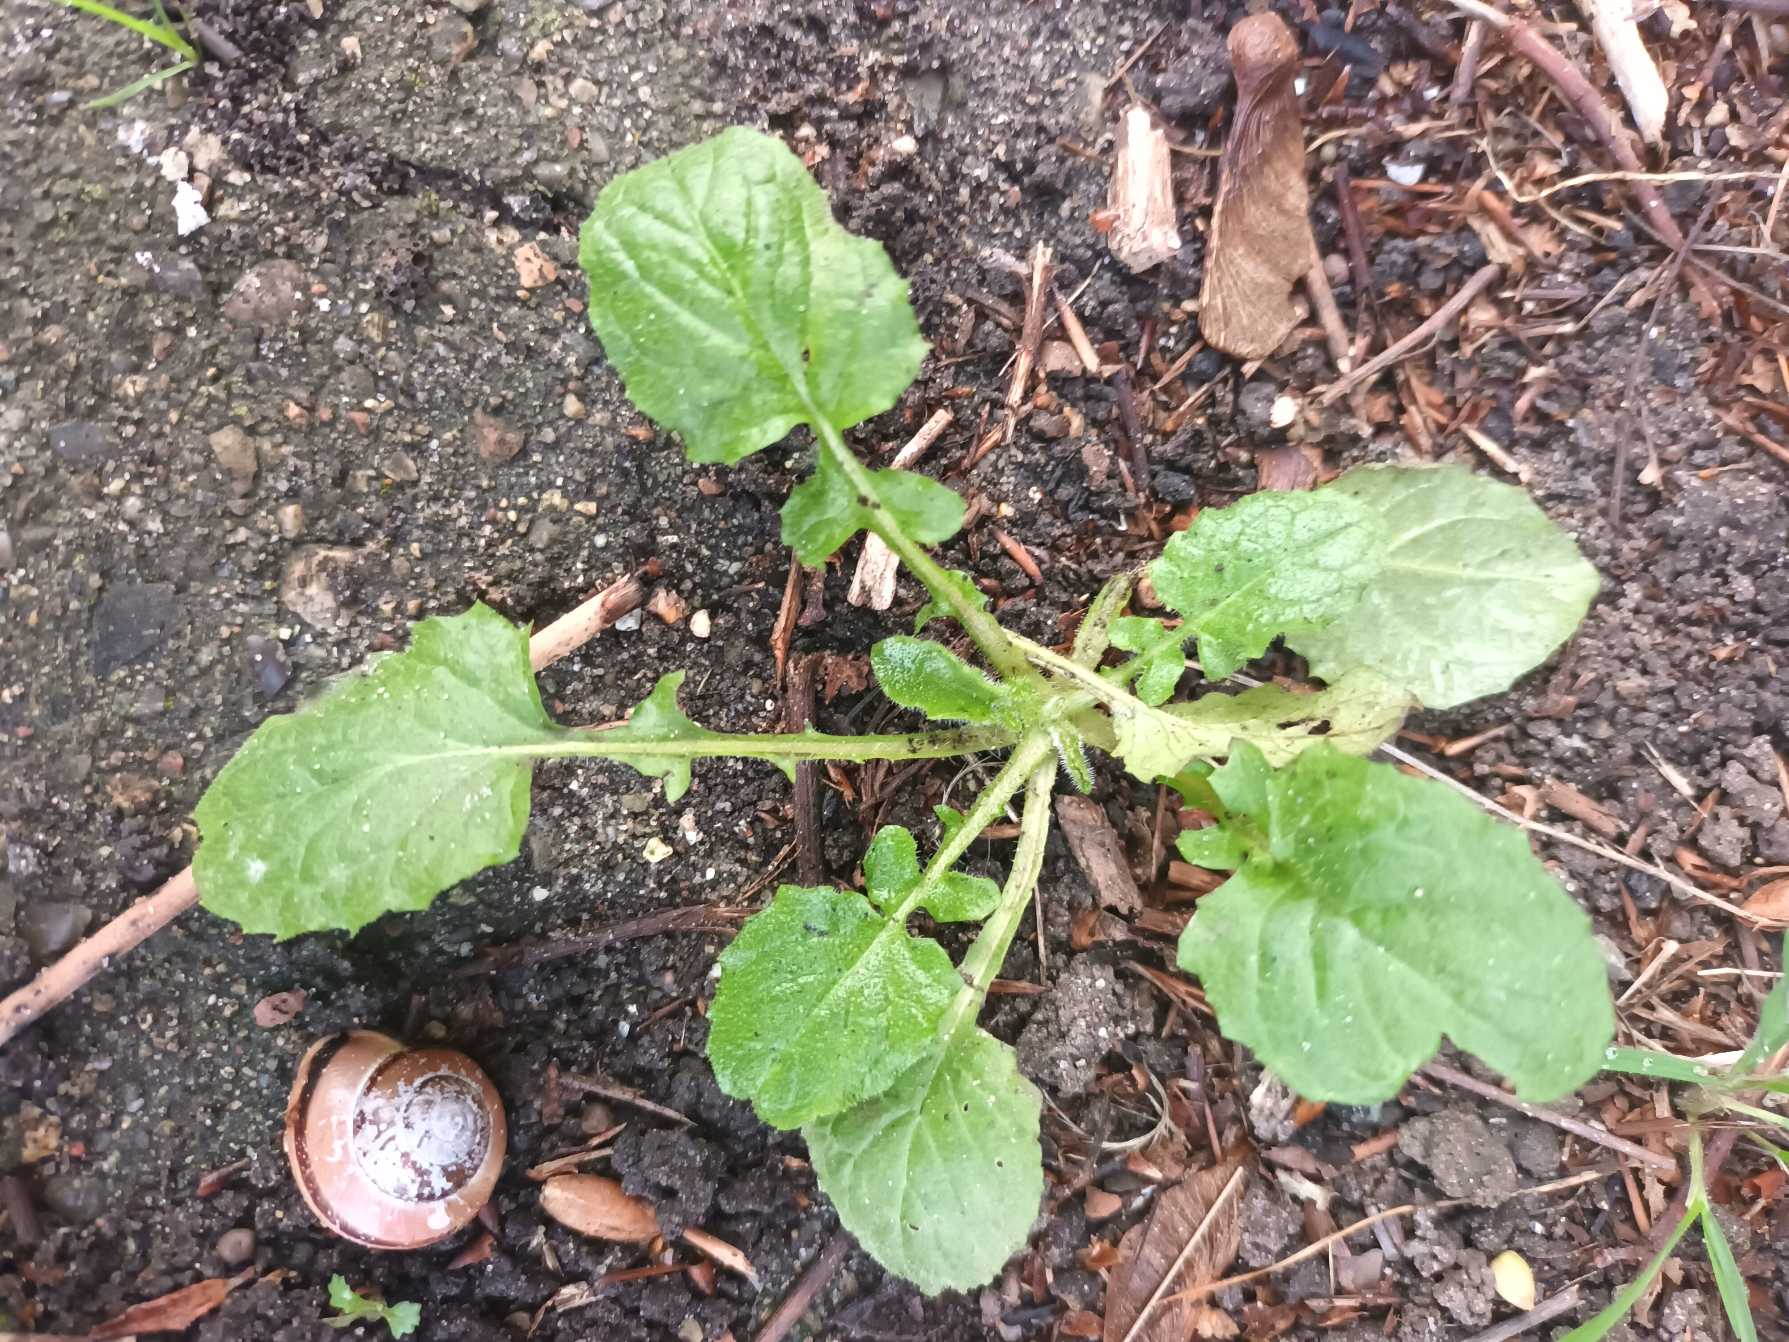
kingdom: Plantae
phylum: Tracheophyta
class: Magnoliopsida
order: Asterales
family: Asteraceae
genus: Lapsana
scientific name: Lapsana communis
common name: Haremad
